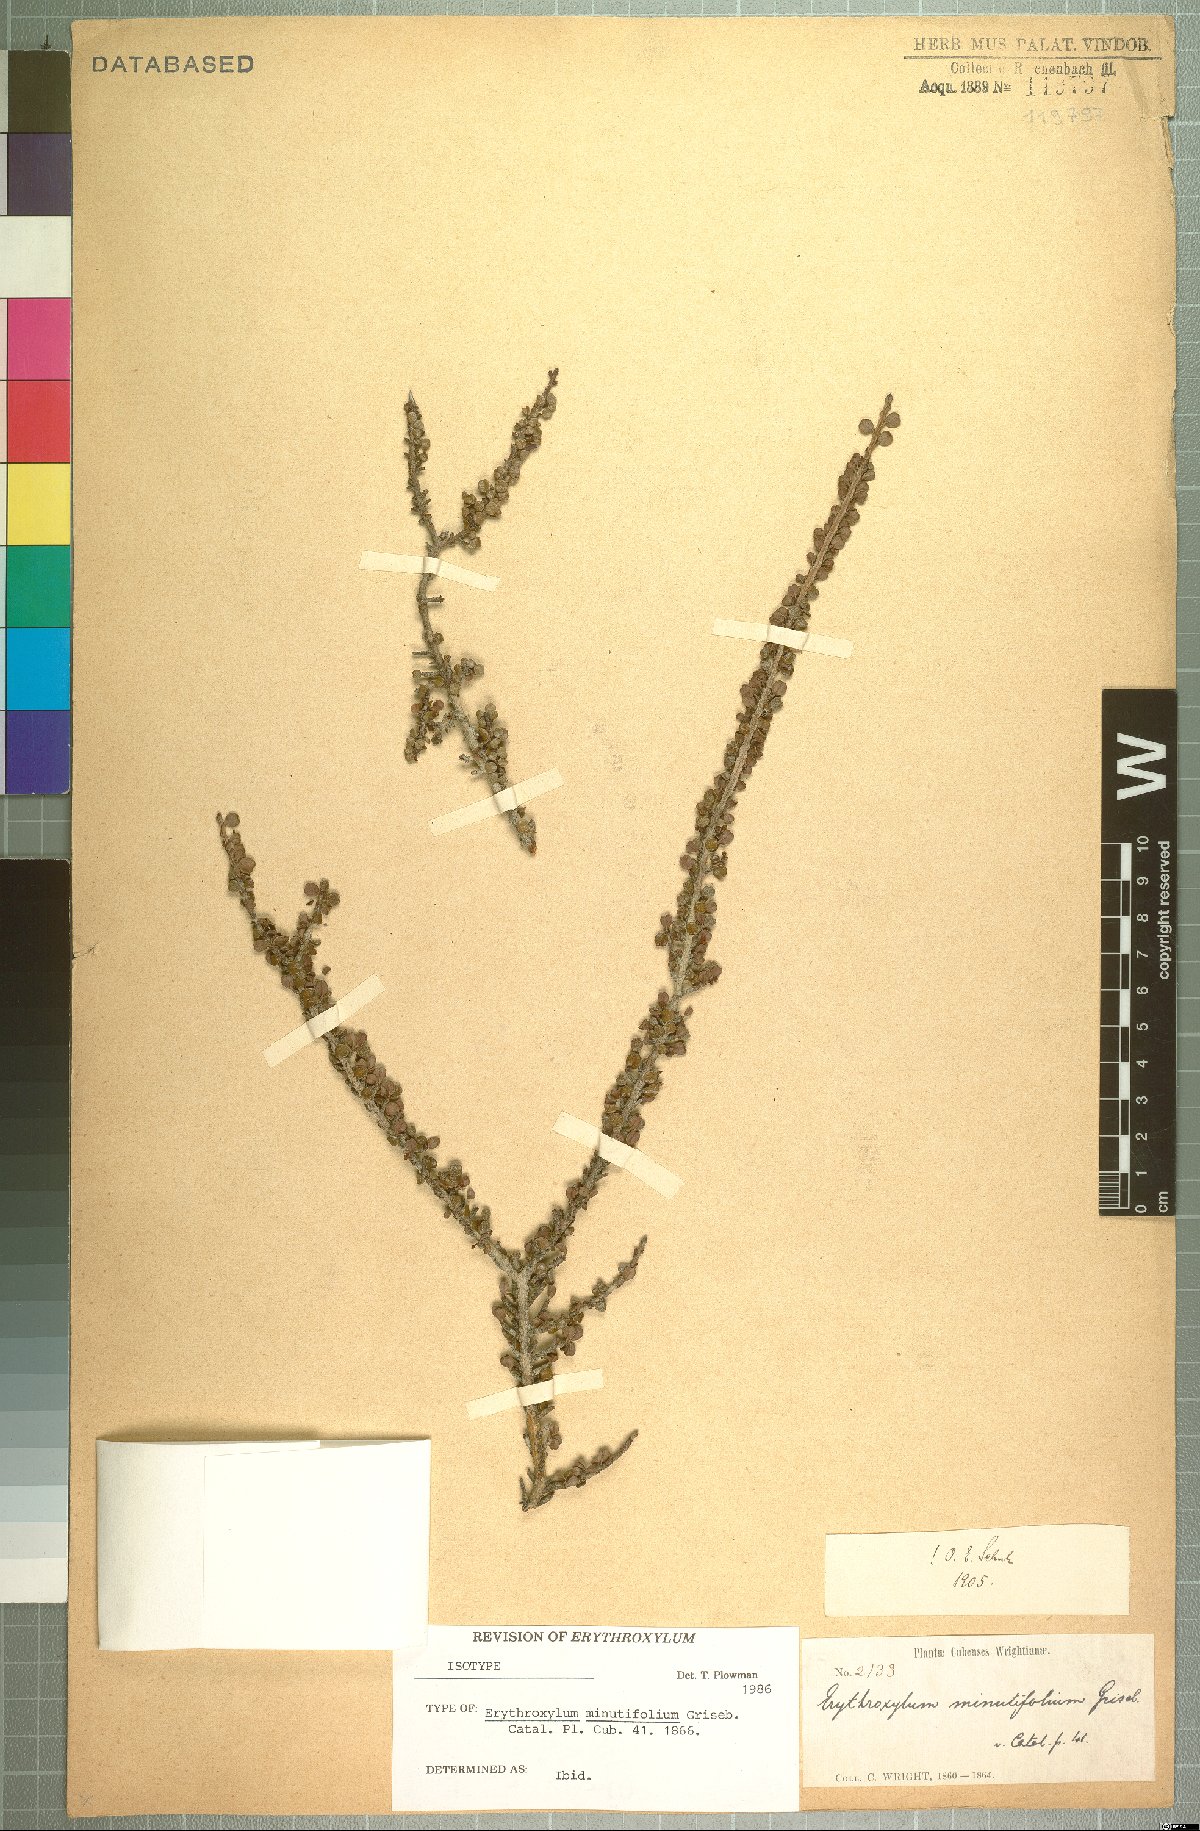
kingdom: Plantae
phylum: Tracheophyta
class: Magnoliopsida
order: Malpighiales
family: Erythroxylaceae
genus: Erythroxylum
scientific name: Erythroxylum minutifolium
